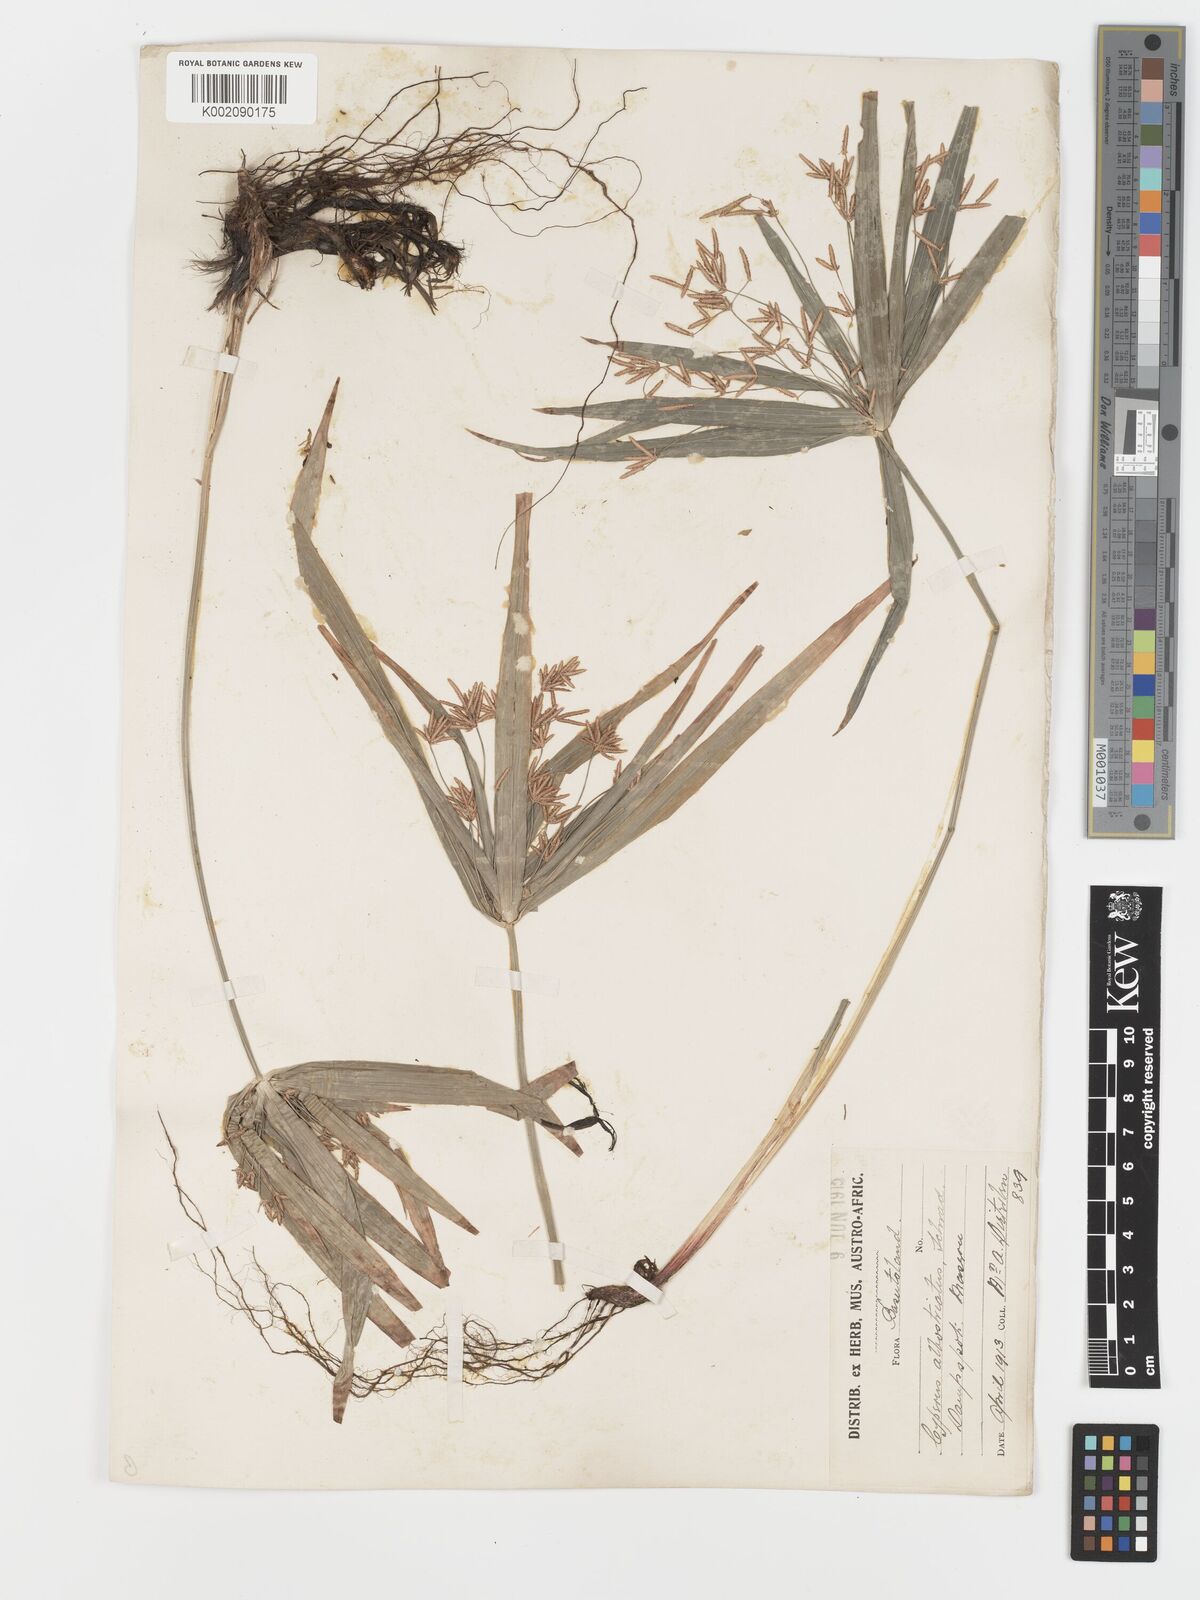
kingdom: Plantae
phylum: Tracheophyta
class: Liliopsida
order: Poales
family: Cyperaceae
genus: Cyperus
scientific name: Cyperus albostriatus
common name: Dwarf umbrella-grass
